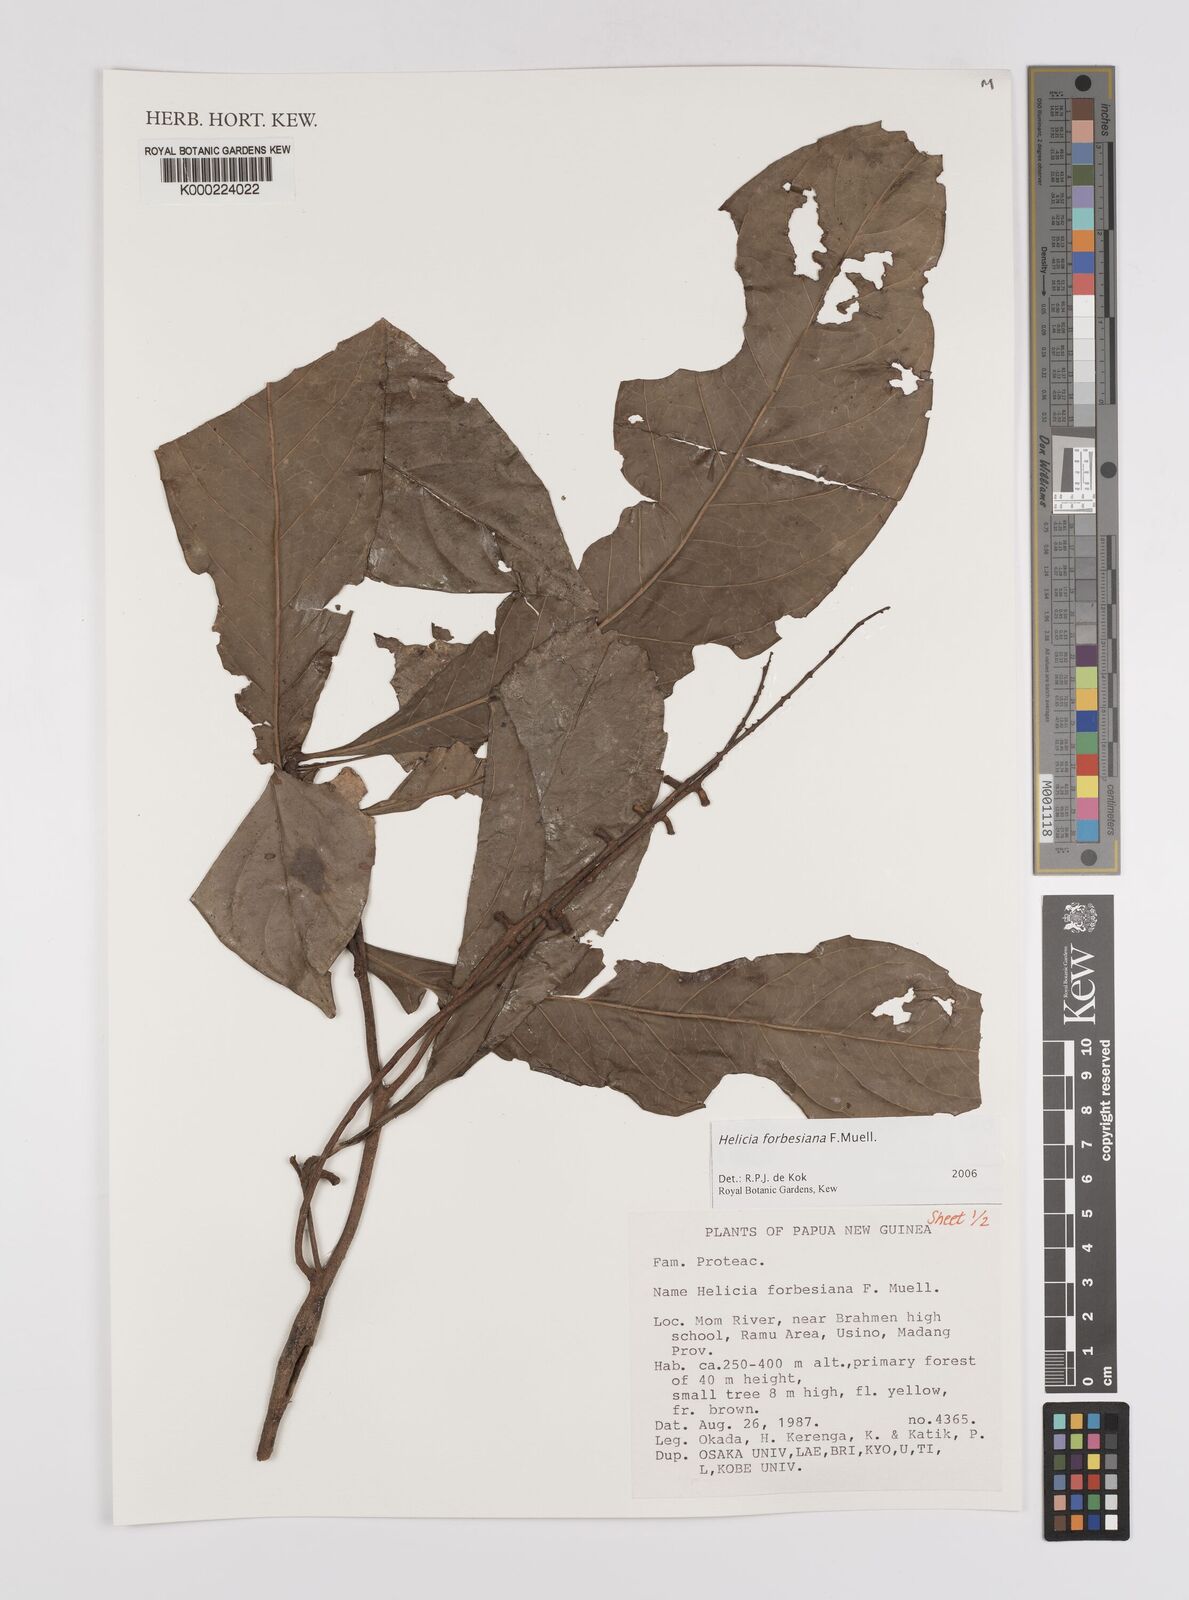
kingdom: Plantae
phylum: Tracheophyta
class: Magnoliopsida
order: Proteales
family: Proteaceae
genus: Helicia
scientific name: Helicia forbesiana
